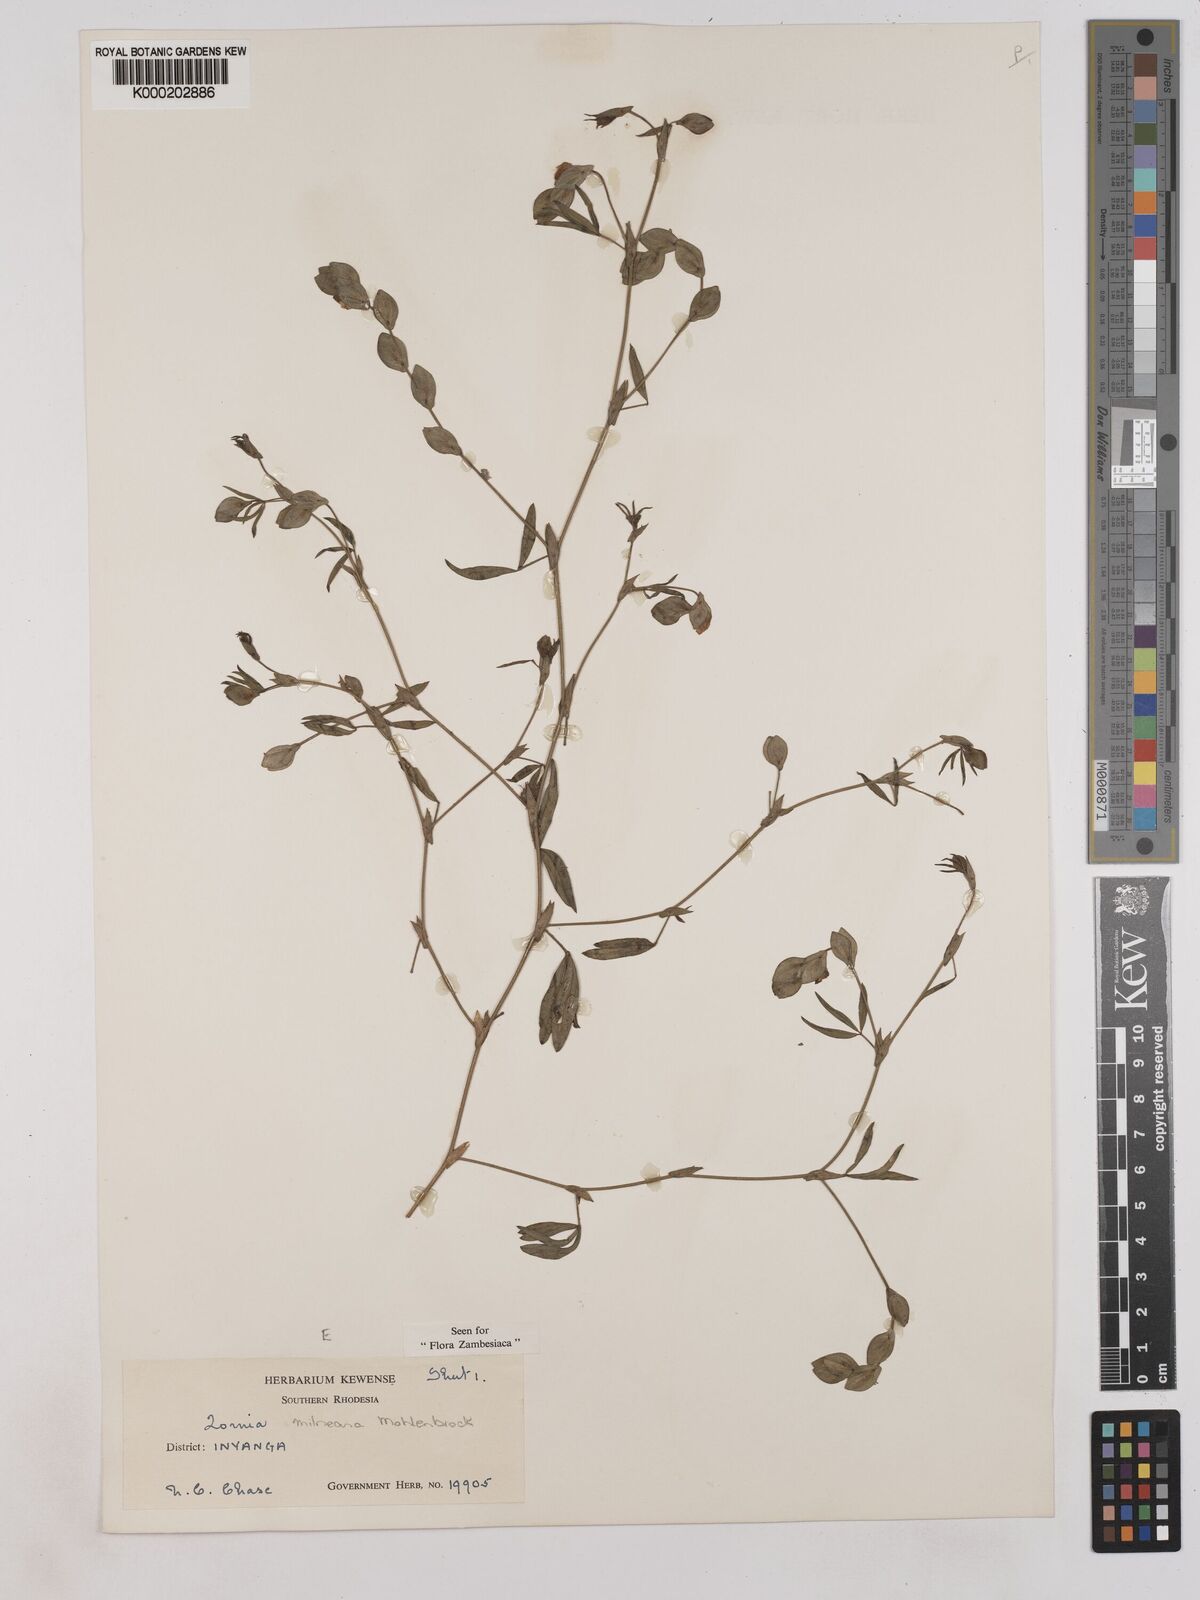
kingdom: Plantae
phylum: Tracheophyta
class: Magnoliopsida
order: Fabales
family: Fabaceae
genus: Zornia
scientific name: Zornia milneana
